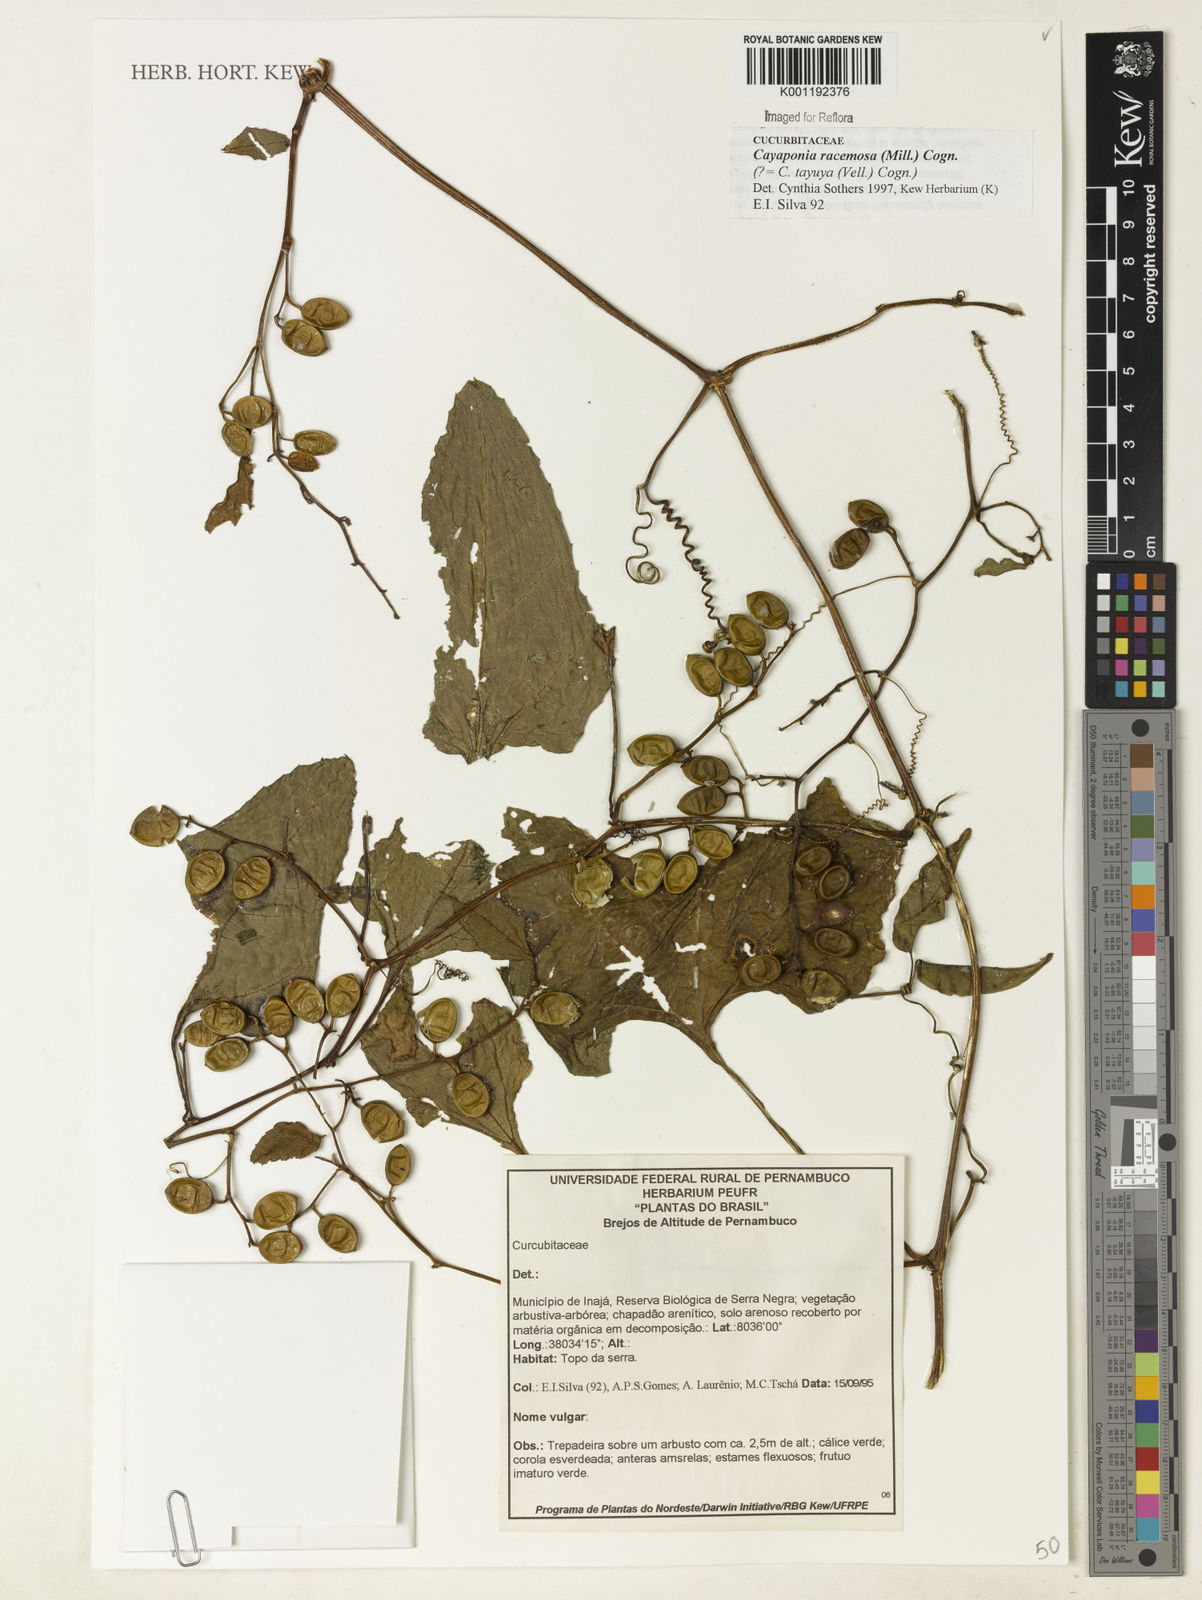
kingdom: Plantae
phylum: Tracheophyta
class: Magnoliopsida
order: Cucurbitales
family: Cucurbitaceae
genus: Cayaponia
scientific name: Cayaponia racemosa
